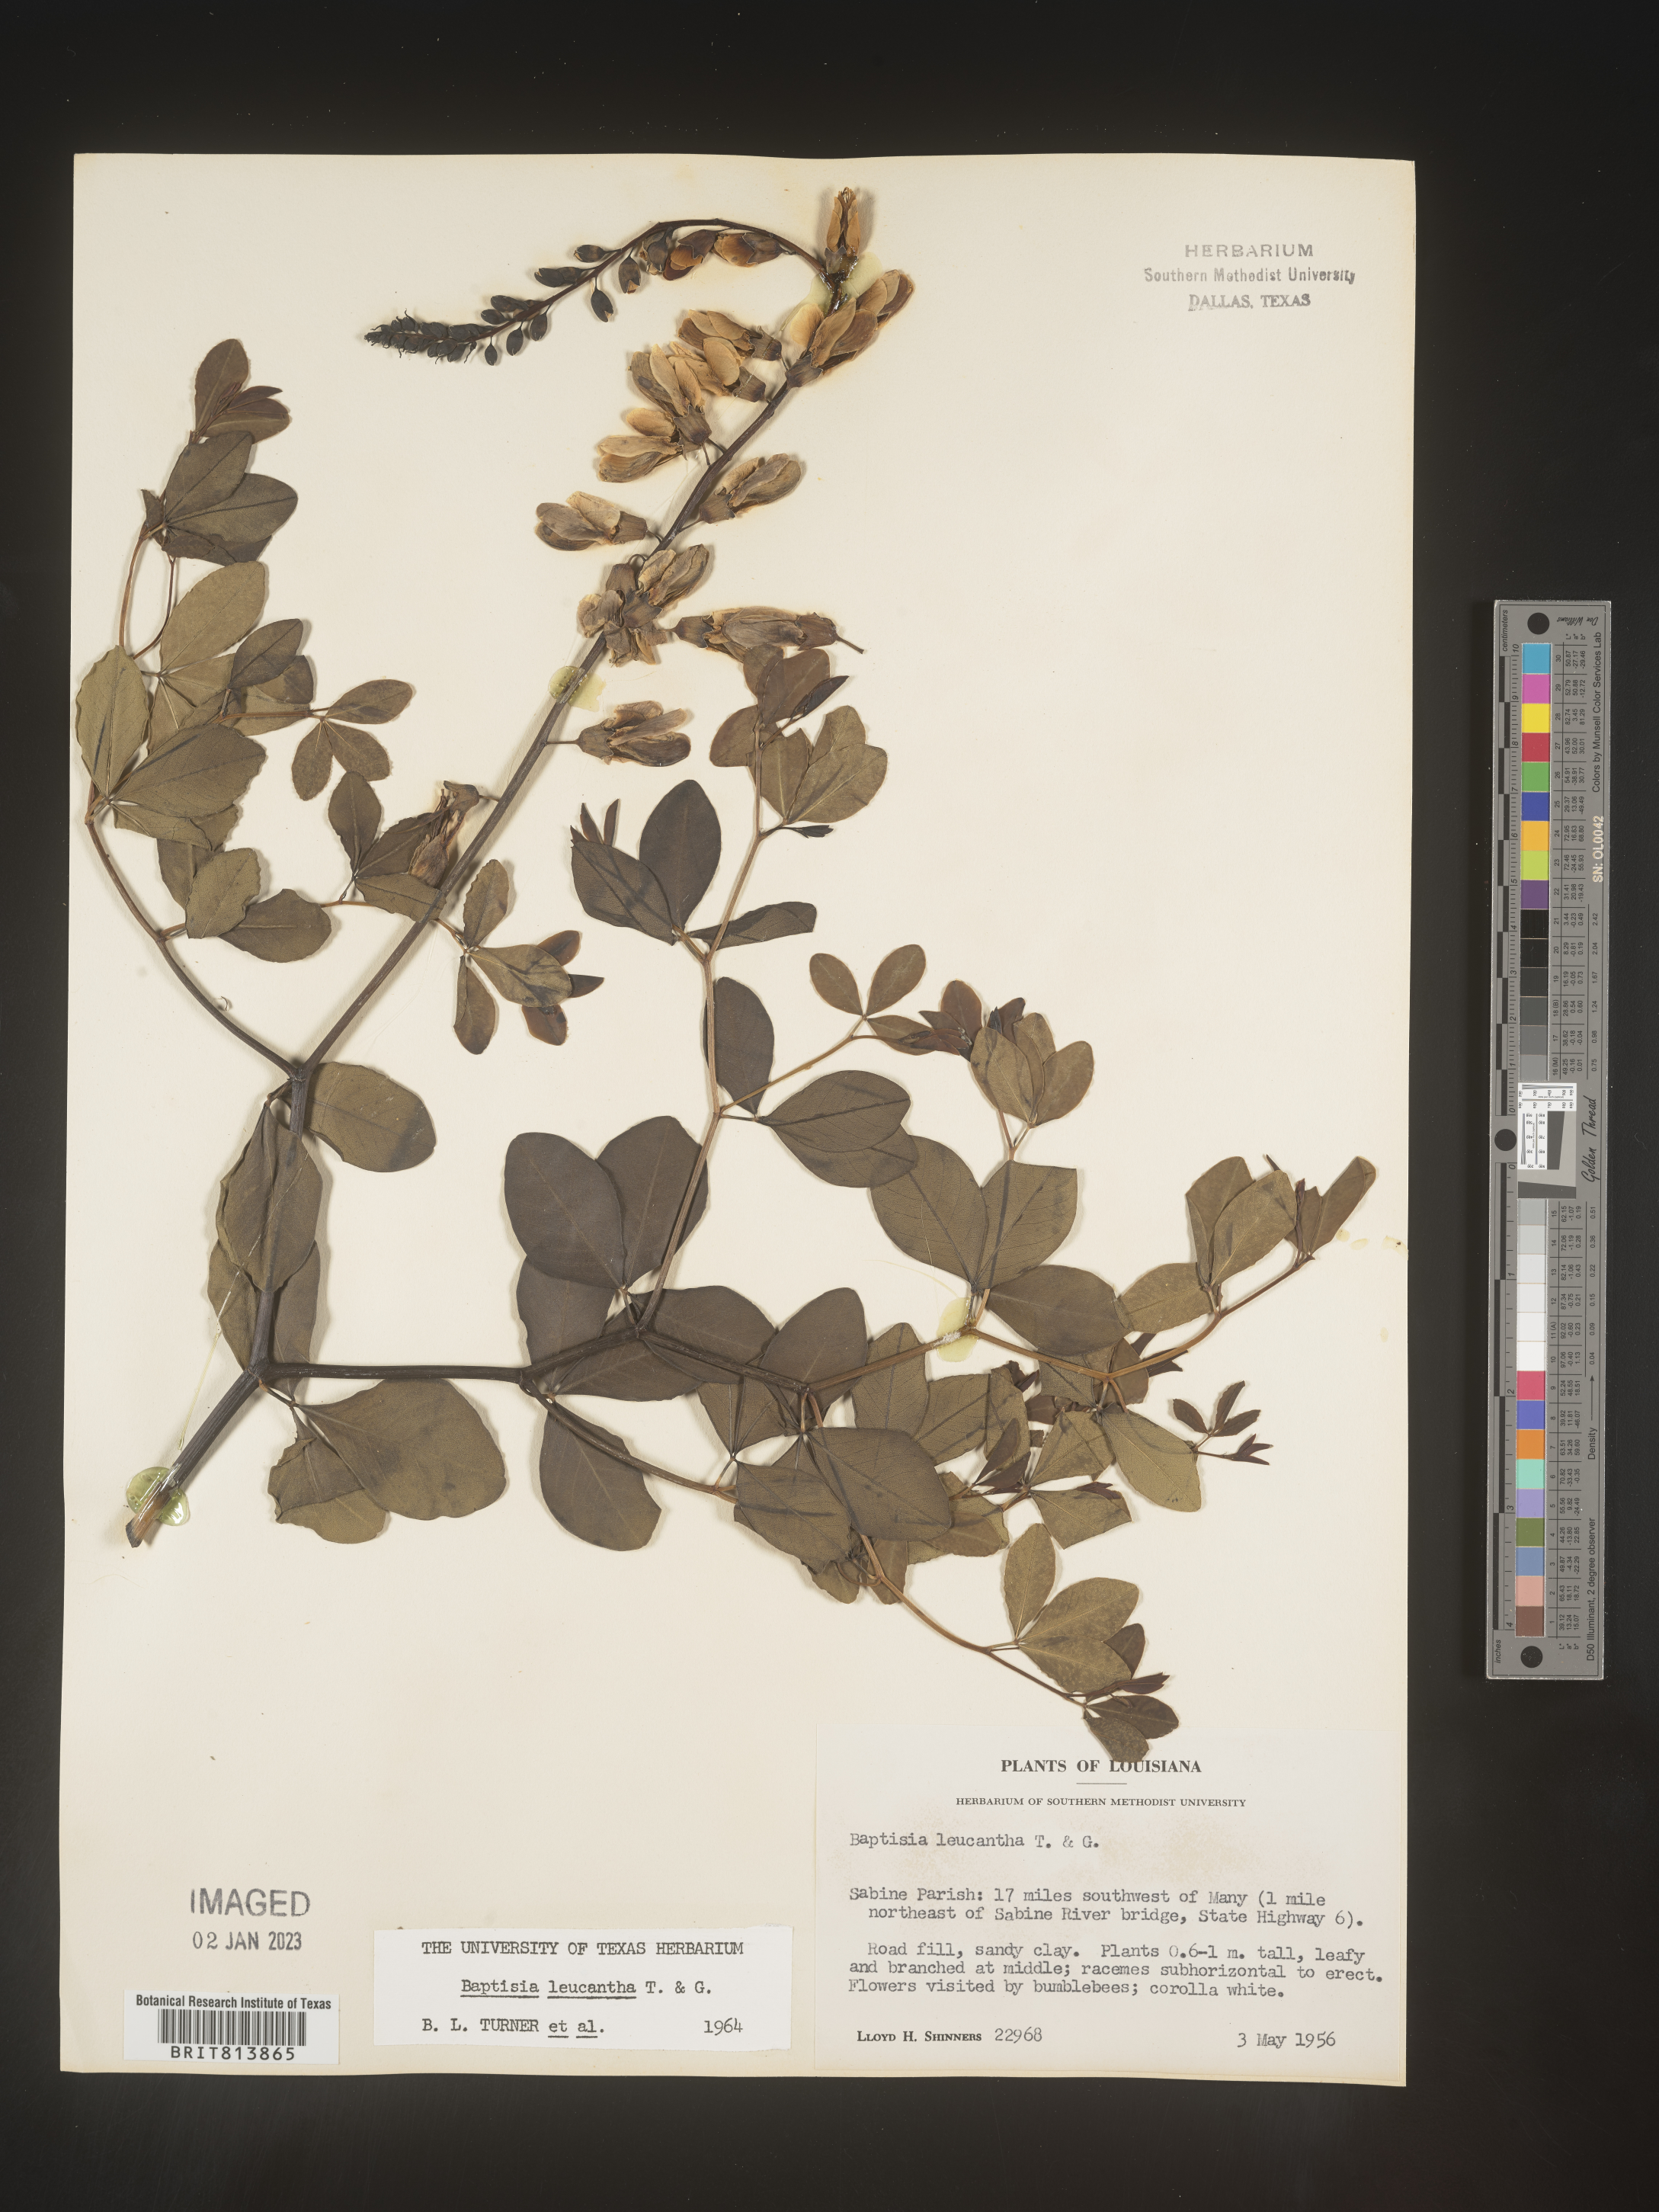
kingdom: Plantae
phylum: Tracheophyta
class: Magnoliopsida
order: Fabales
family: Fabaceae
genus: Baptisia
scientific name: Baptisia alba
